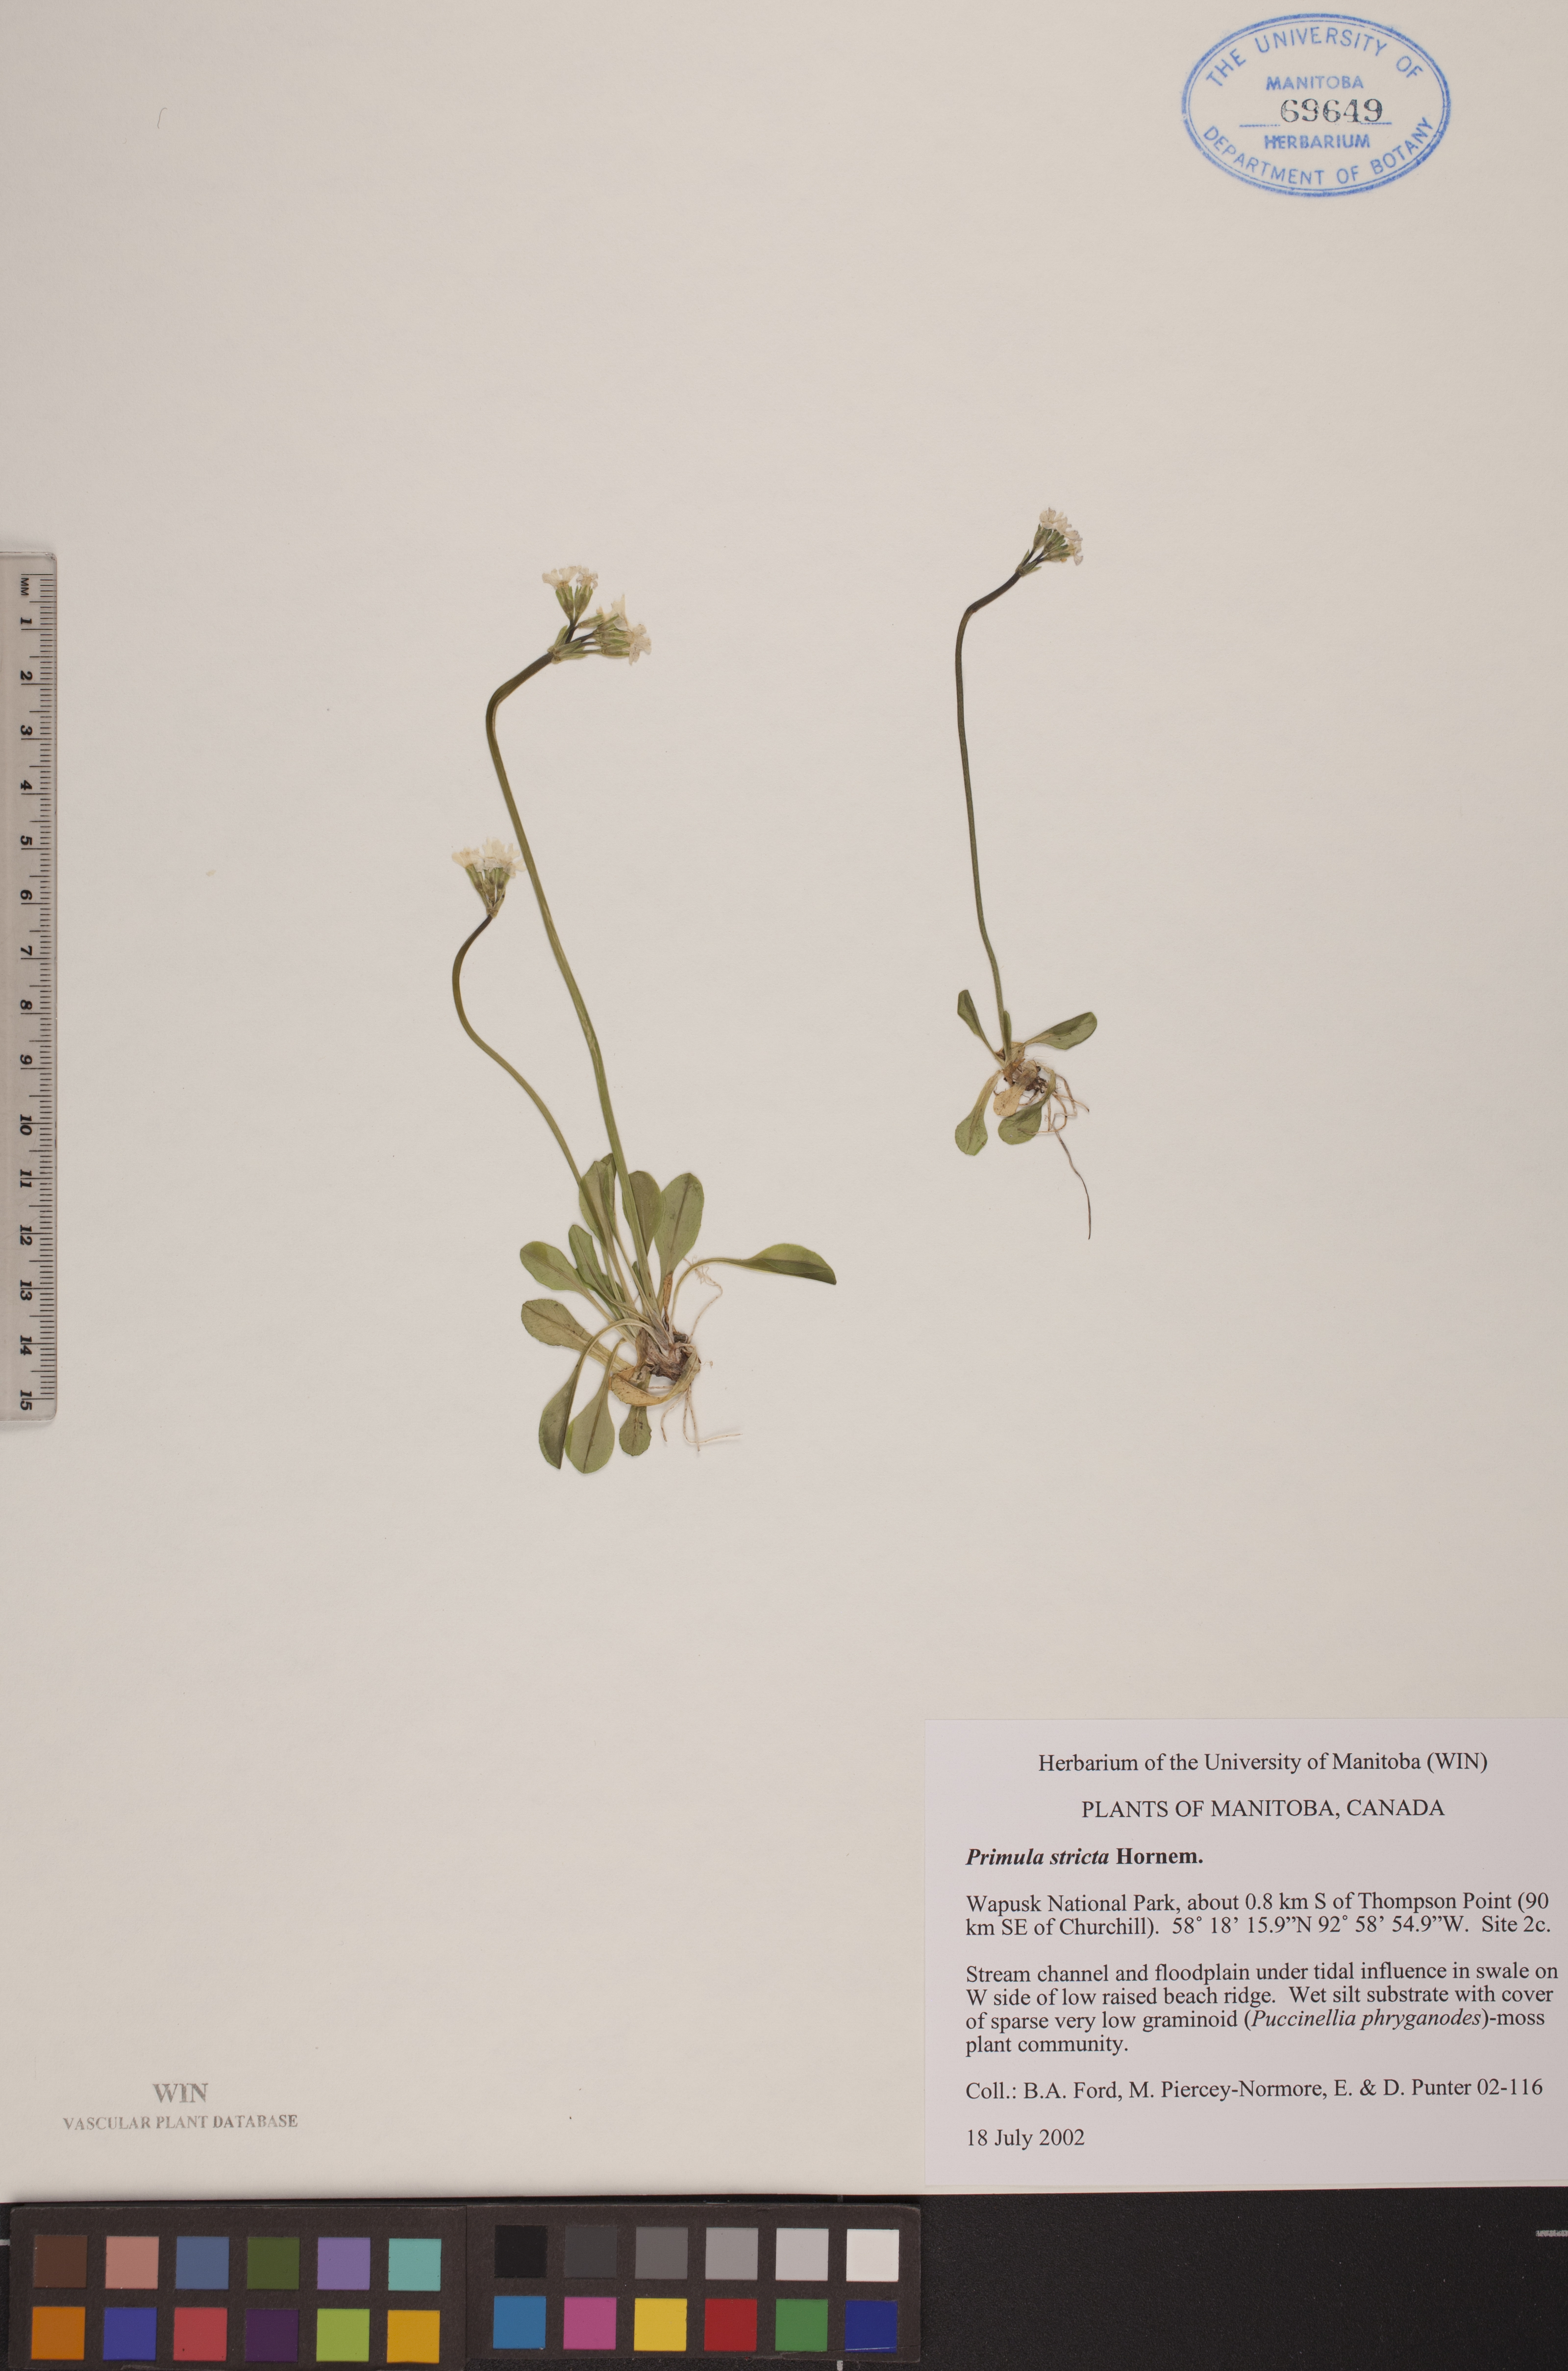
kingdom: Plantae
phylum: Tracheophyta
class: Magnoliopsida
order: Ericales
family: Primulaceae
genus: Primula
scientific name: Primula stricta
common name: Coastal primrose
